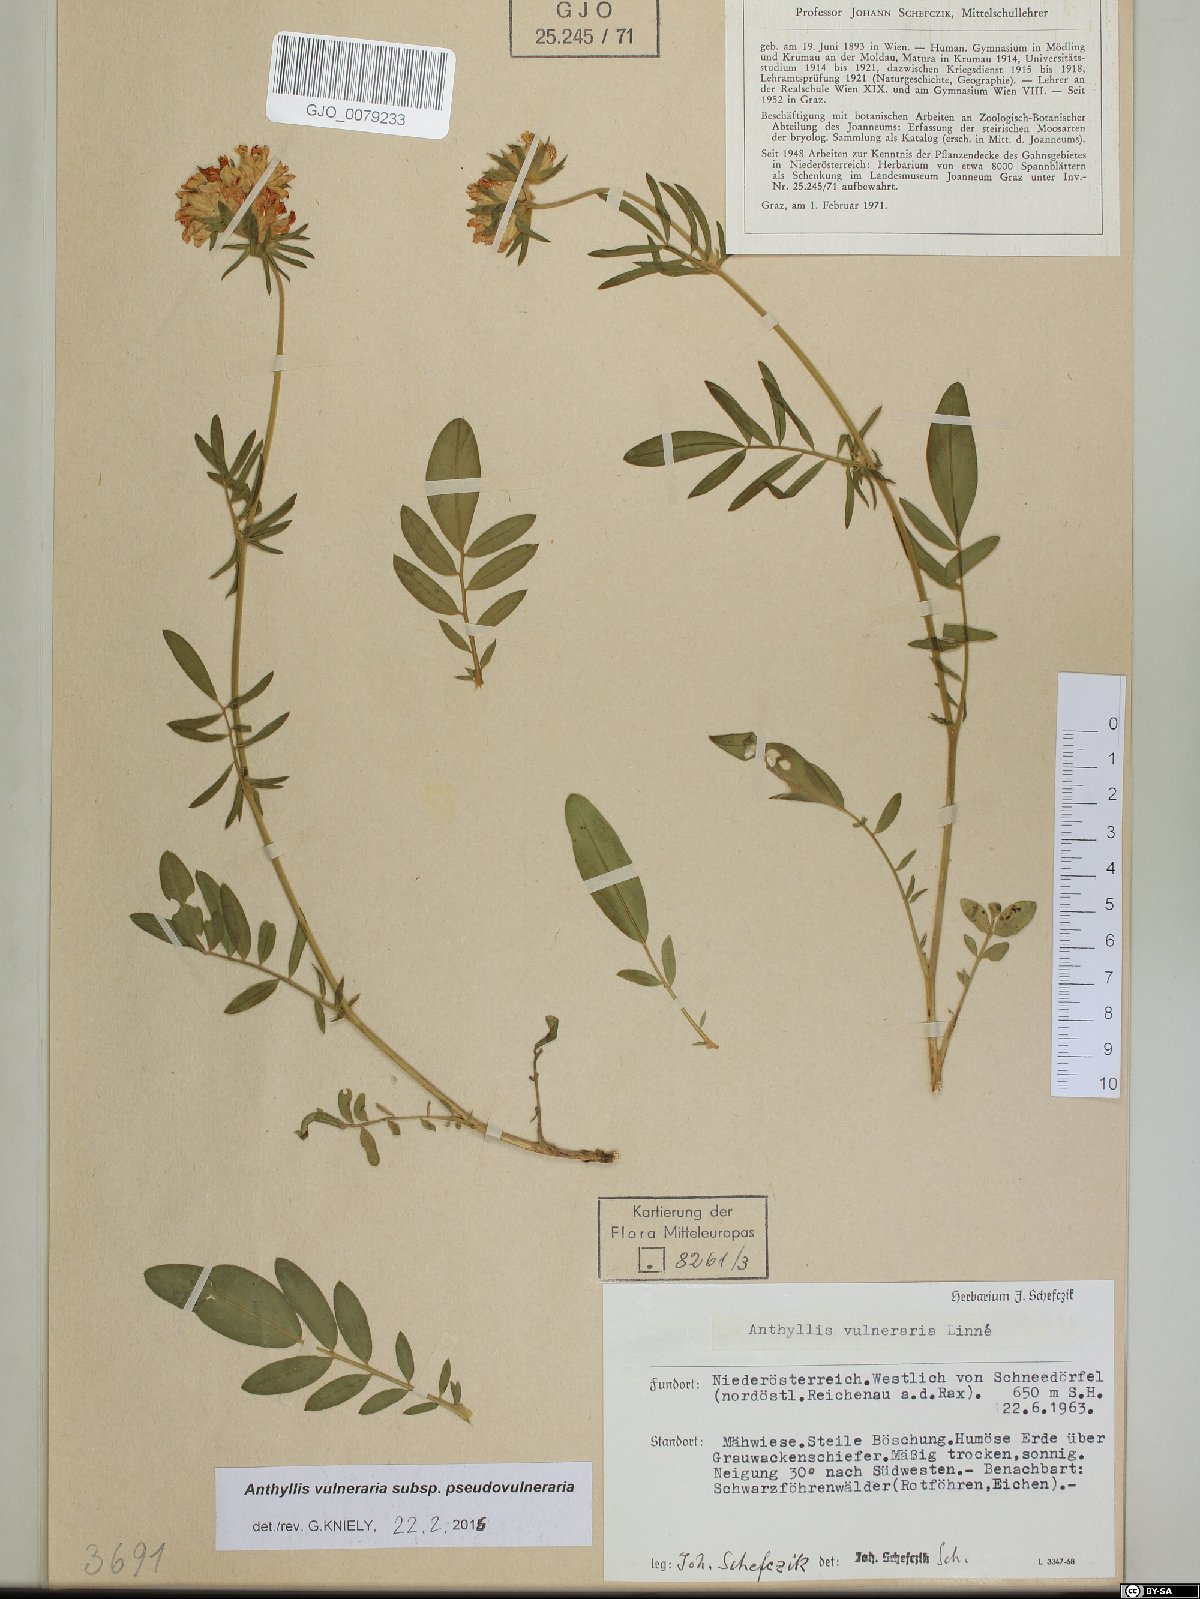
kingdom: Plantae
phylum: Tracheophyta
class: Magnoliopsida
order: Fabales
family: Fabaceae
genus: Anthyllis
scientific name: Anthyllis vulneraria
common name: Kidney vetch
